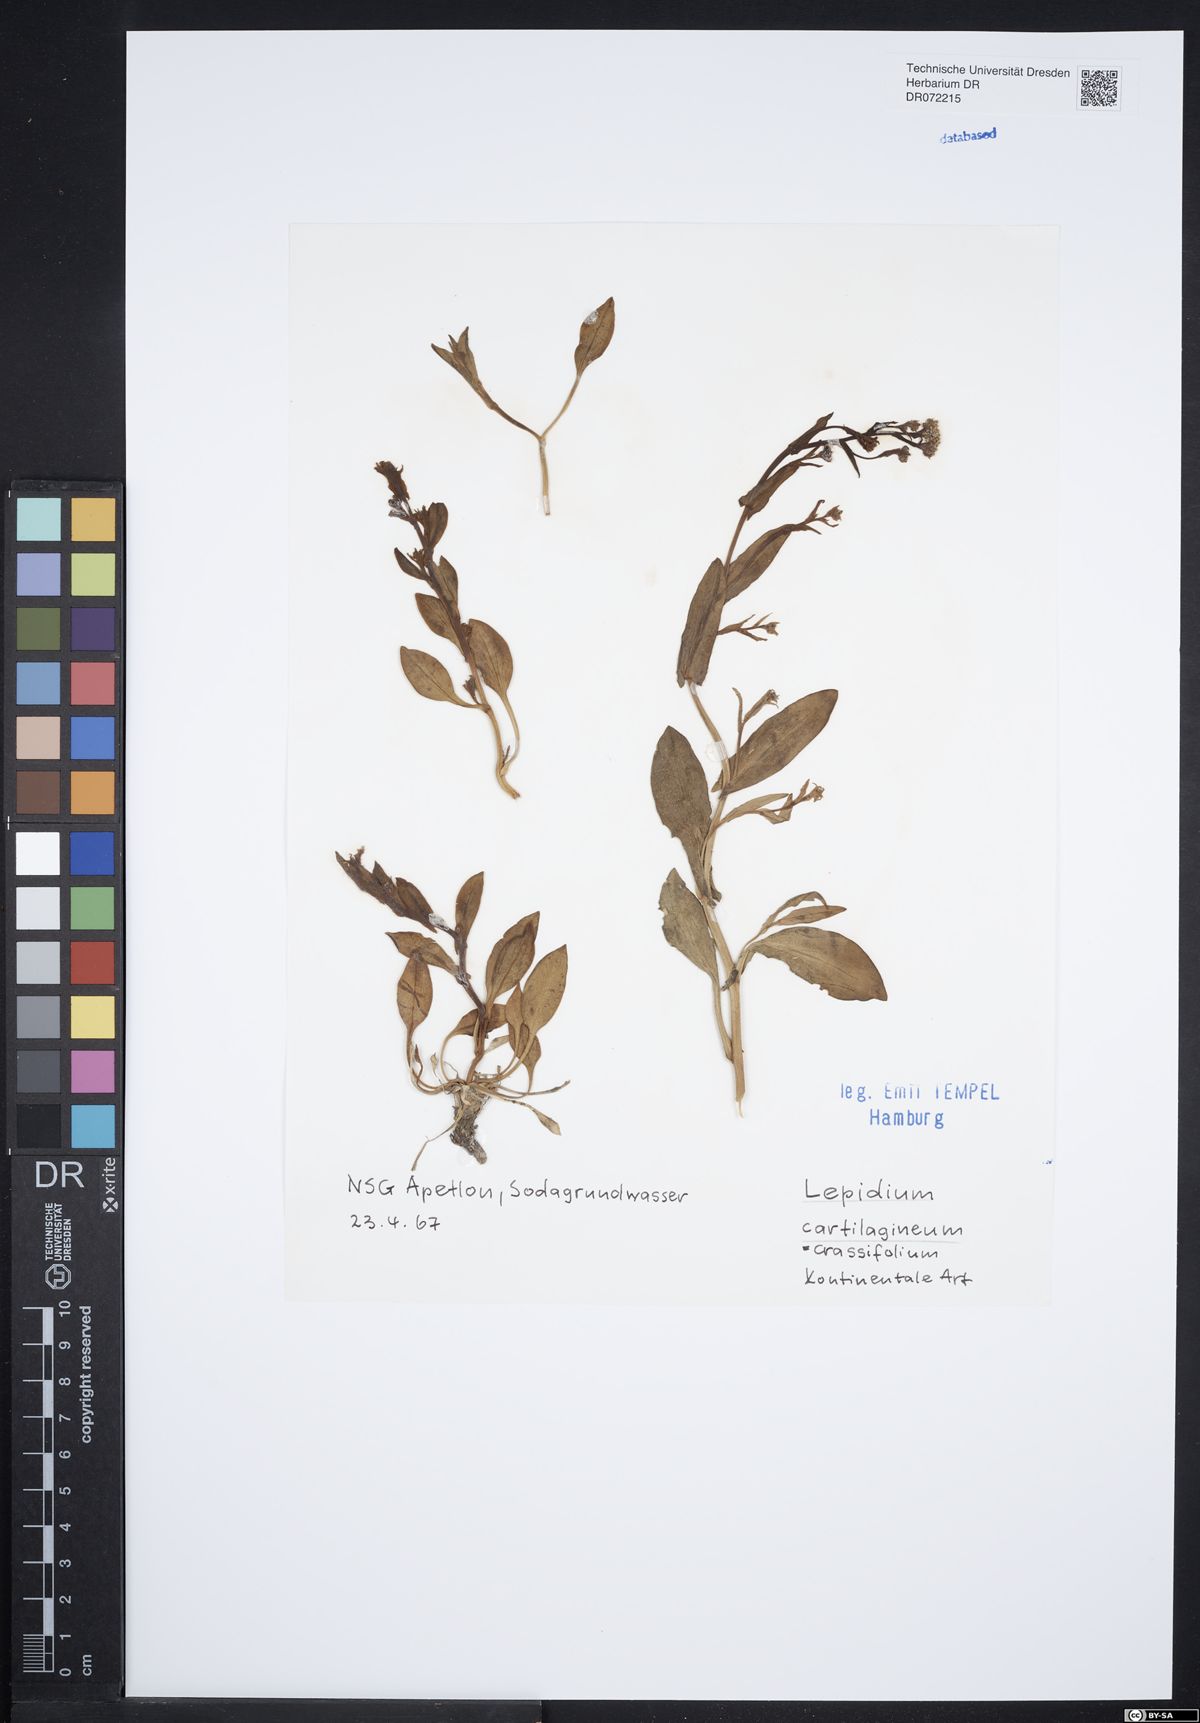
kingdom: Plantae
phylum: Tracheophyta
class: Magnoliopsida
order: Brassicales
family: Brassicaceae
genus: Lepidium
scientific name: Lepidium cartilagineum
